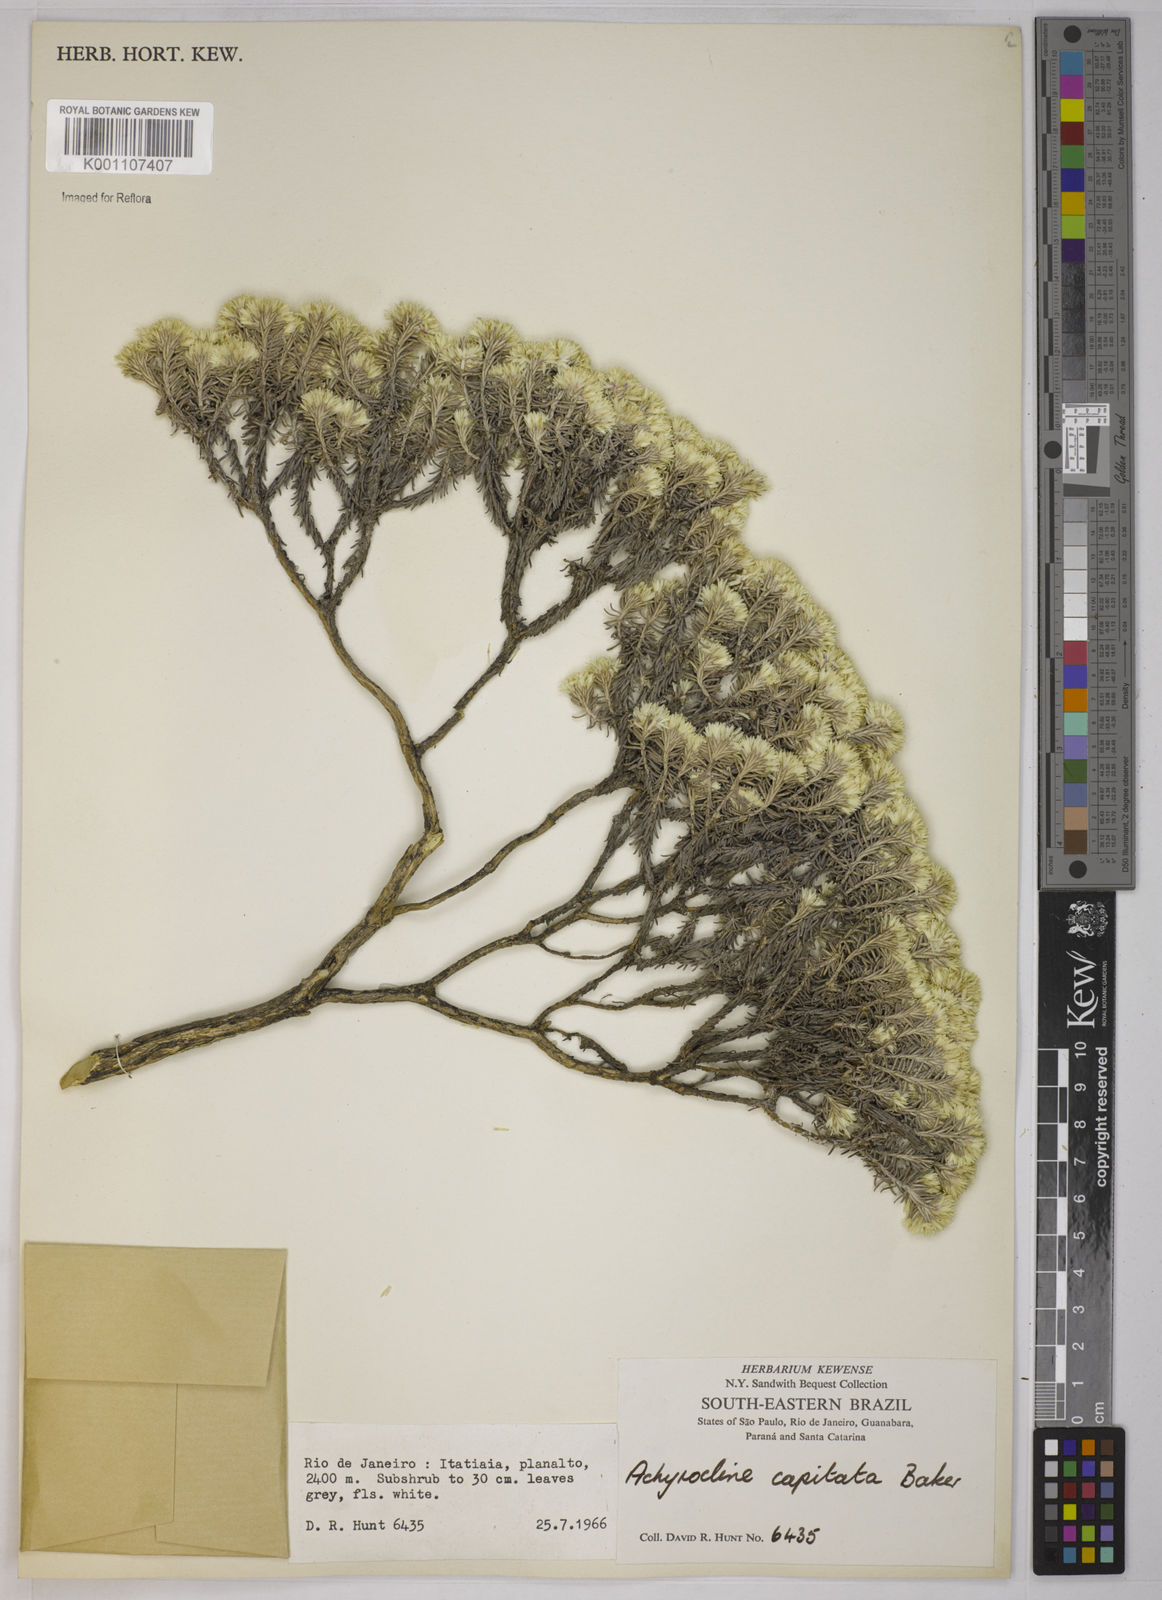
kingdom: Plantae
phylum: Tracheophyta
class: Magnoliopsida
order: Asterales
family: Asteraceae
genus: Chionolaena
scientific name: Chionolaena capitata
